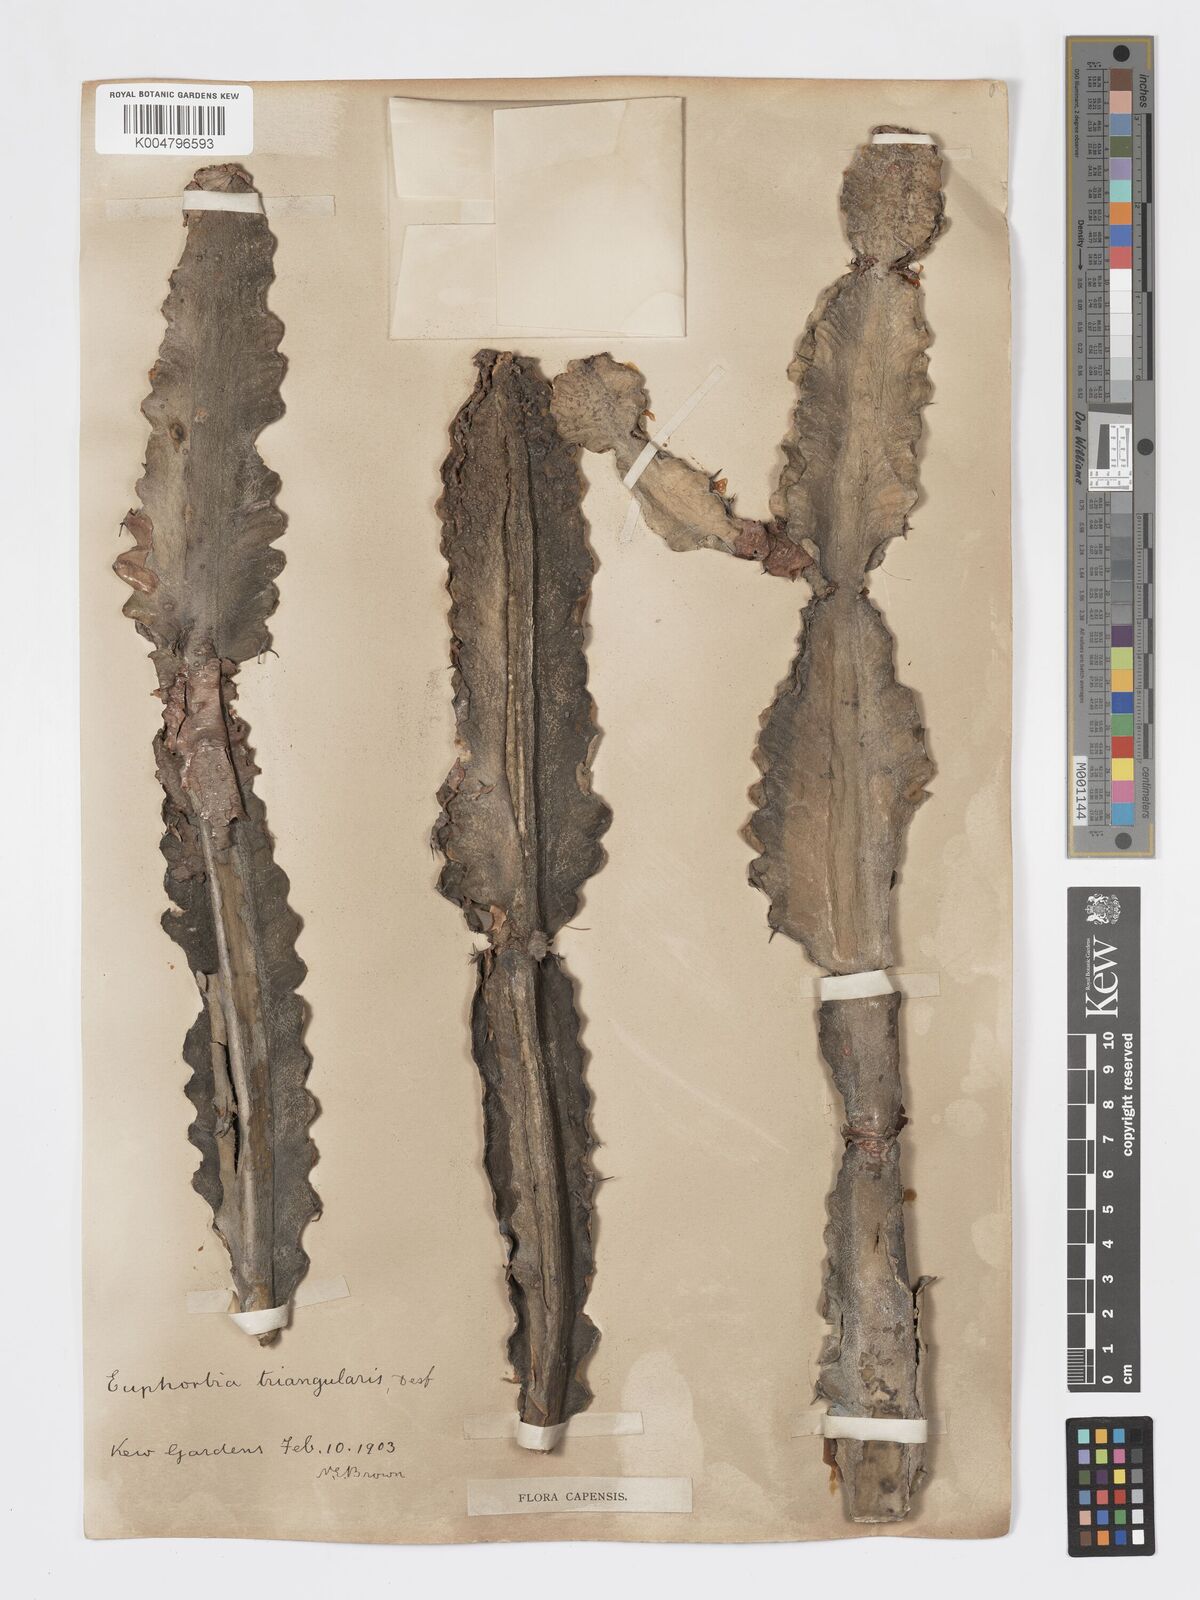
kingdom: Plantae
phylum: Tracheophyta
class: Magnoliopsida
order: Malpighiales
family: Euphorbiaceae
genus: Euphorbia
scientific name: Euphorbia triangularis
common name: Chandelier tree
